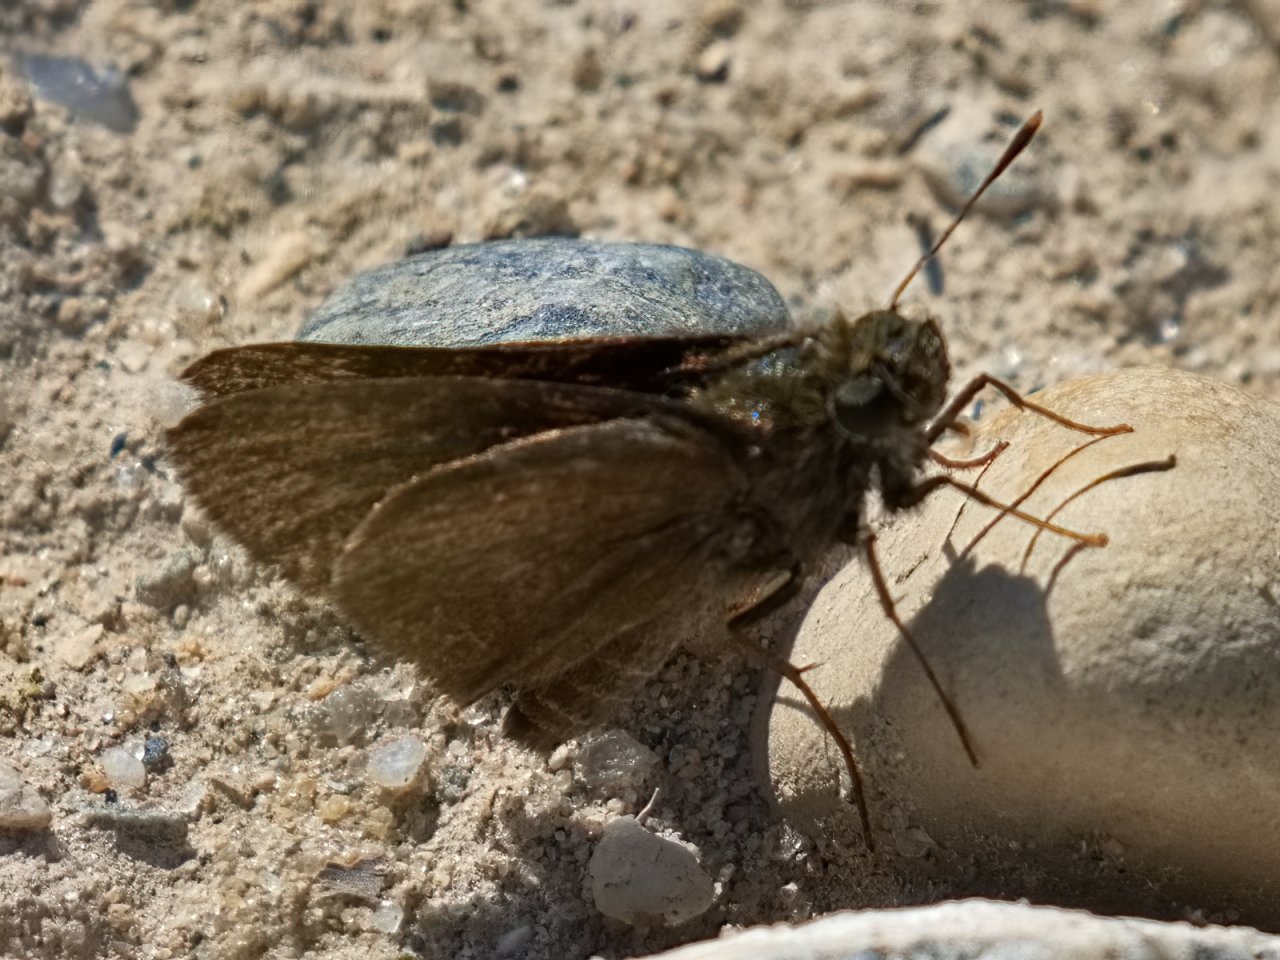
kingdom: Animalia
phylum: Arthropoda
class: Insecta
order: Lepidoptera
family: Hesperiidae
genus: Euphyes
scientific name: Euphyes vestris
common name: Dun Skipper
